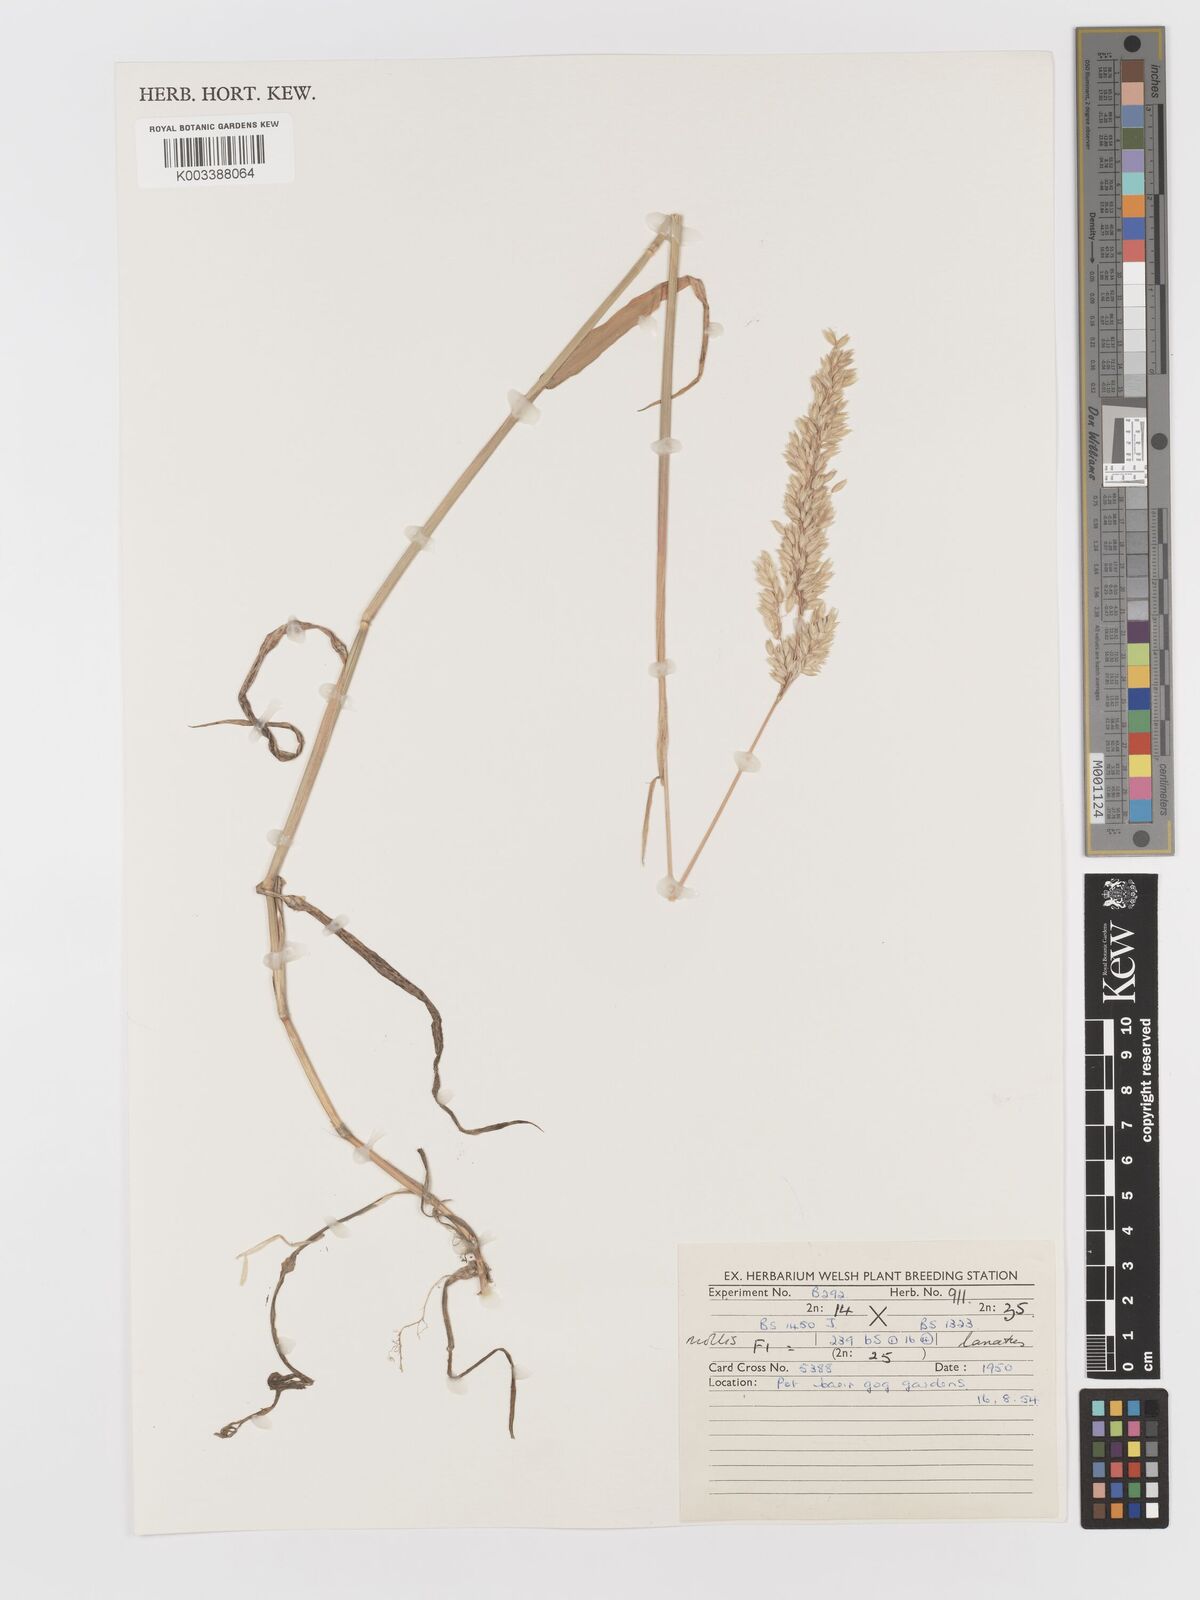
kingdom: Plantae
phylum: Tracheophyta
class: Liliopsida
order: Poales
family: Poaceae
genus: Holcus
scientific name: Holcus lanatus
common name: Yorkshire-fog
